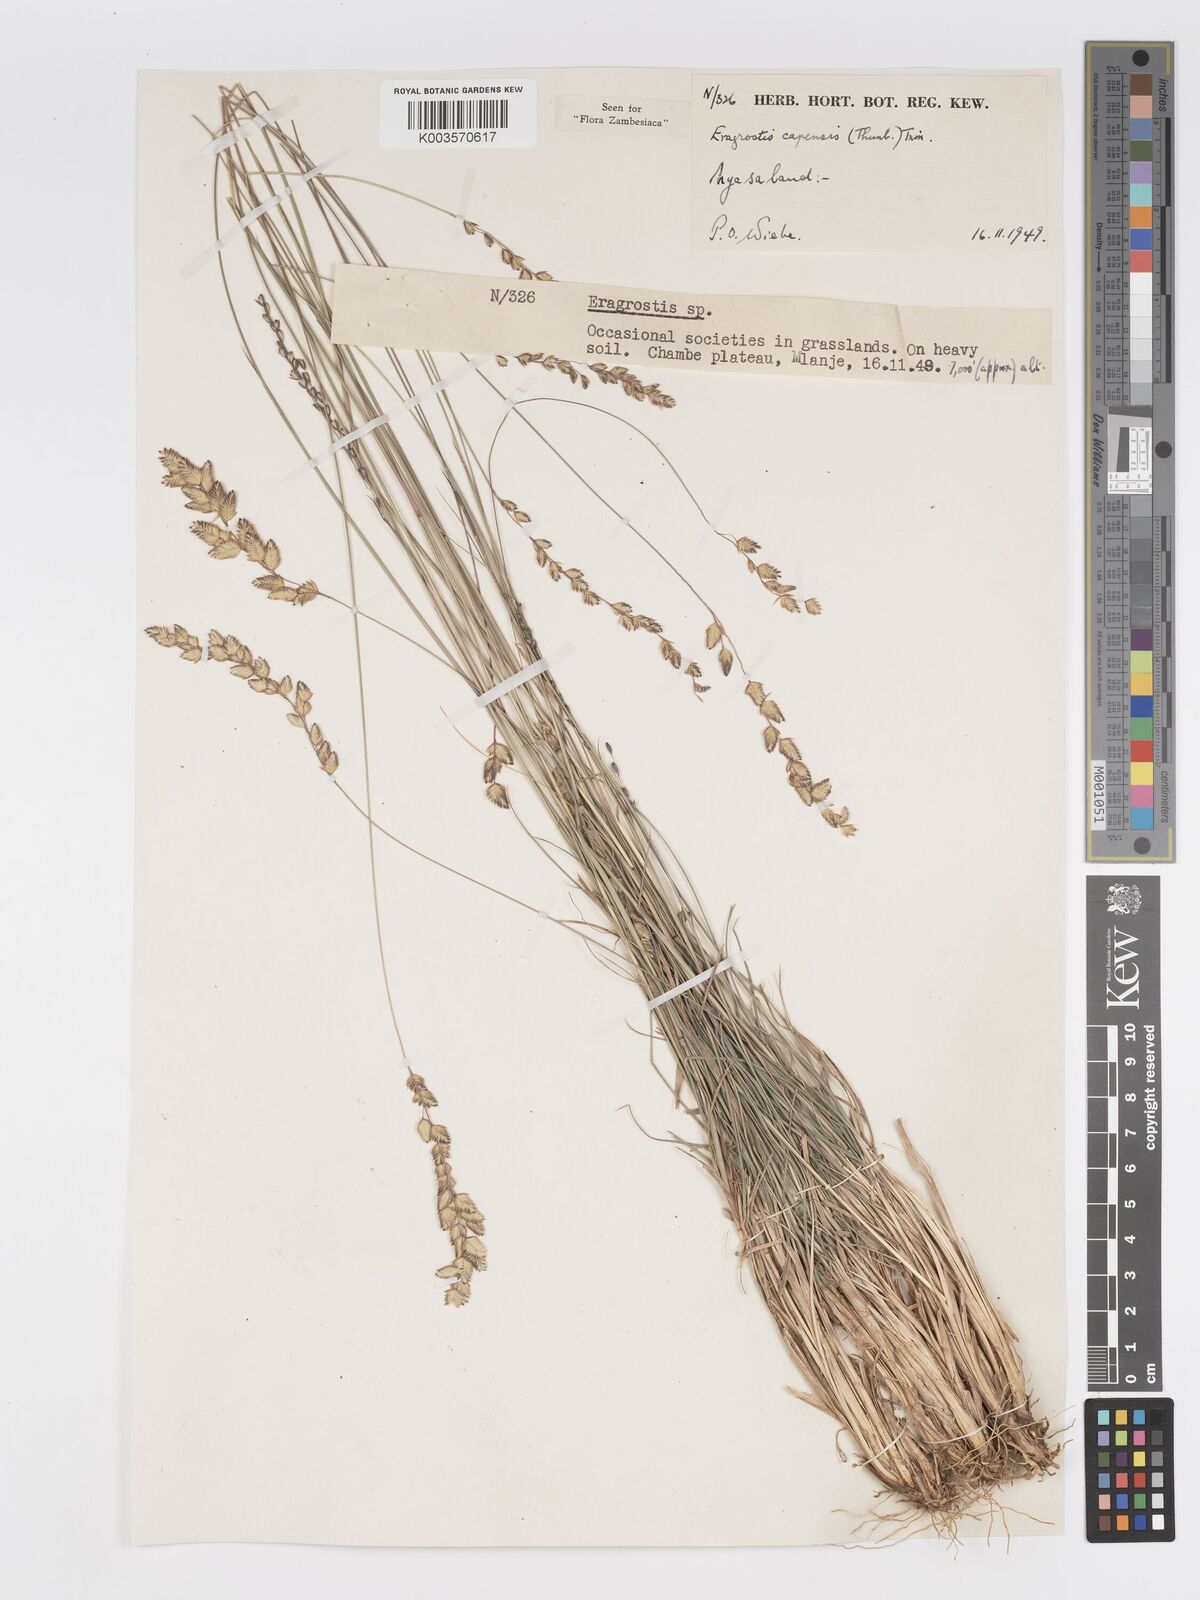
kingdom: Plantae
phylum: Tracheophyta
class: Liliopsida
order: Poales
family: Poaceae
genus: Eragrostis
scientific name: Eragrostis capensis
